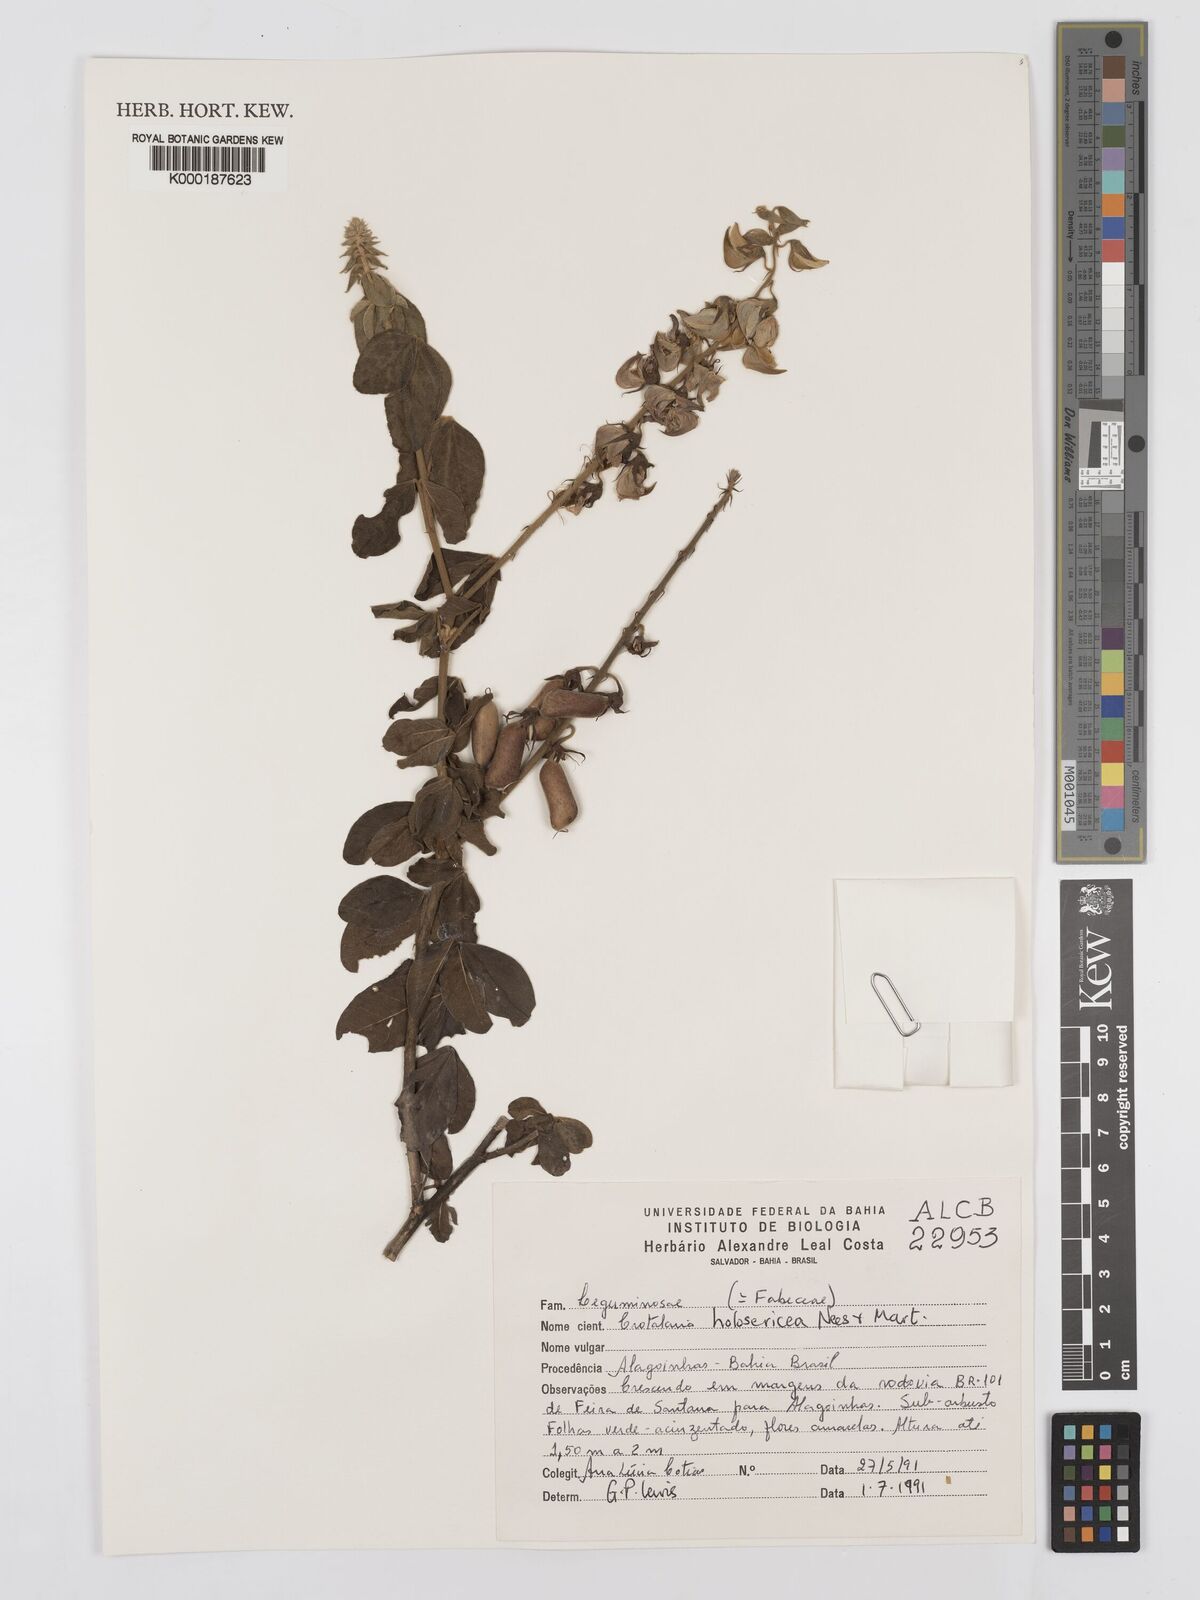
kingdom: Plantae
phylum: Tracheophyta
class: Magnoliopsida
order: Fabales
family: Fabaceae
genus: Crotalaria
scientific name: Crotalaria holosericea
